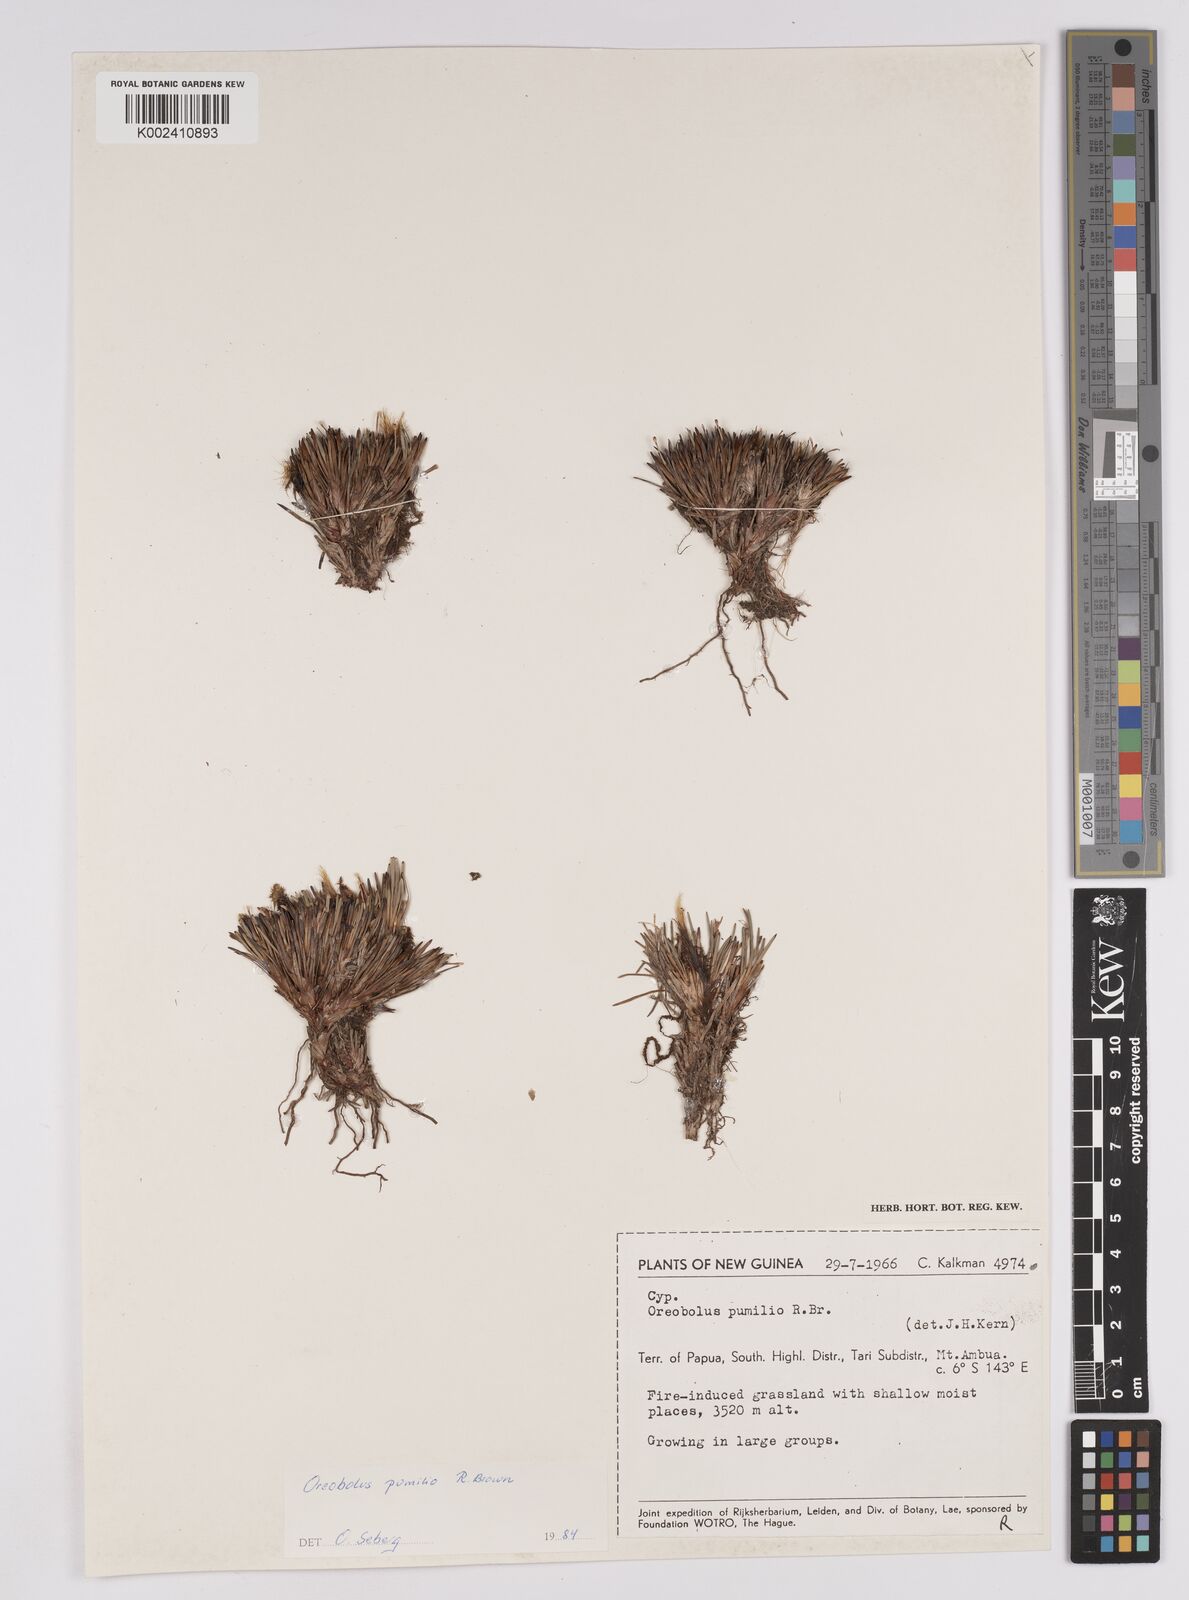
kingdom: Plantae
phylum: Tracheophyta
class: Liliopsida
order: Poales
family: Cyperaceae
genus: Oreobolus
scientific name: Oreobolus pumilio
